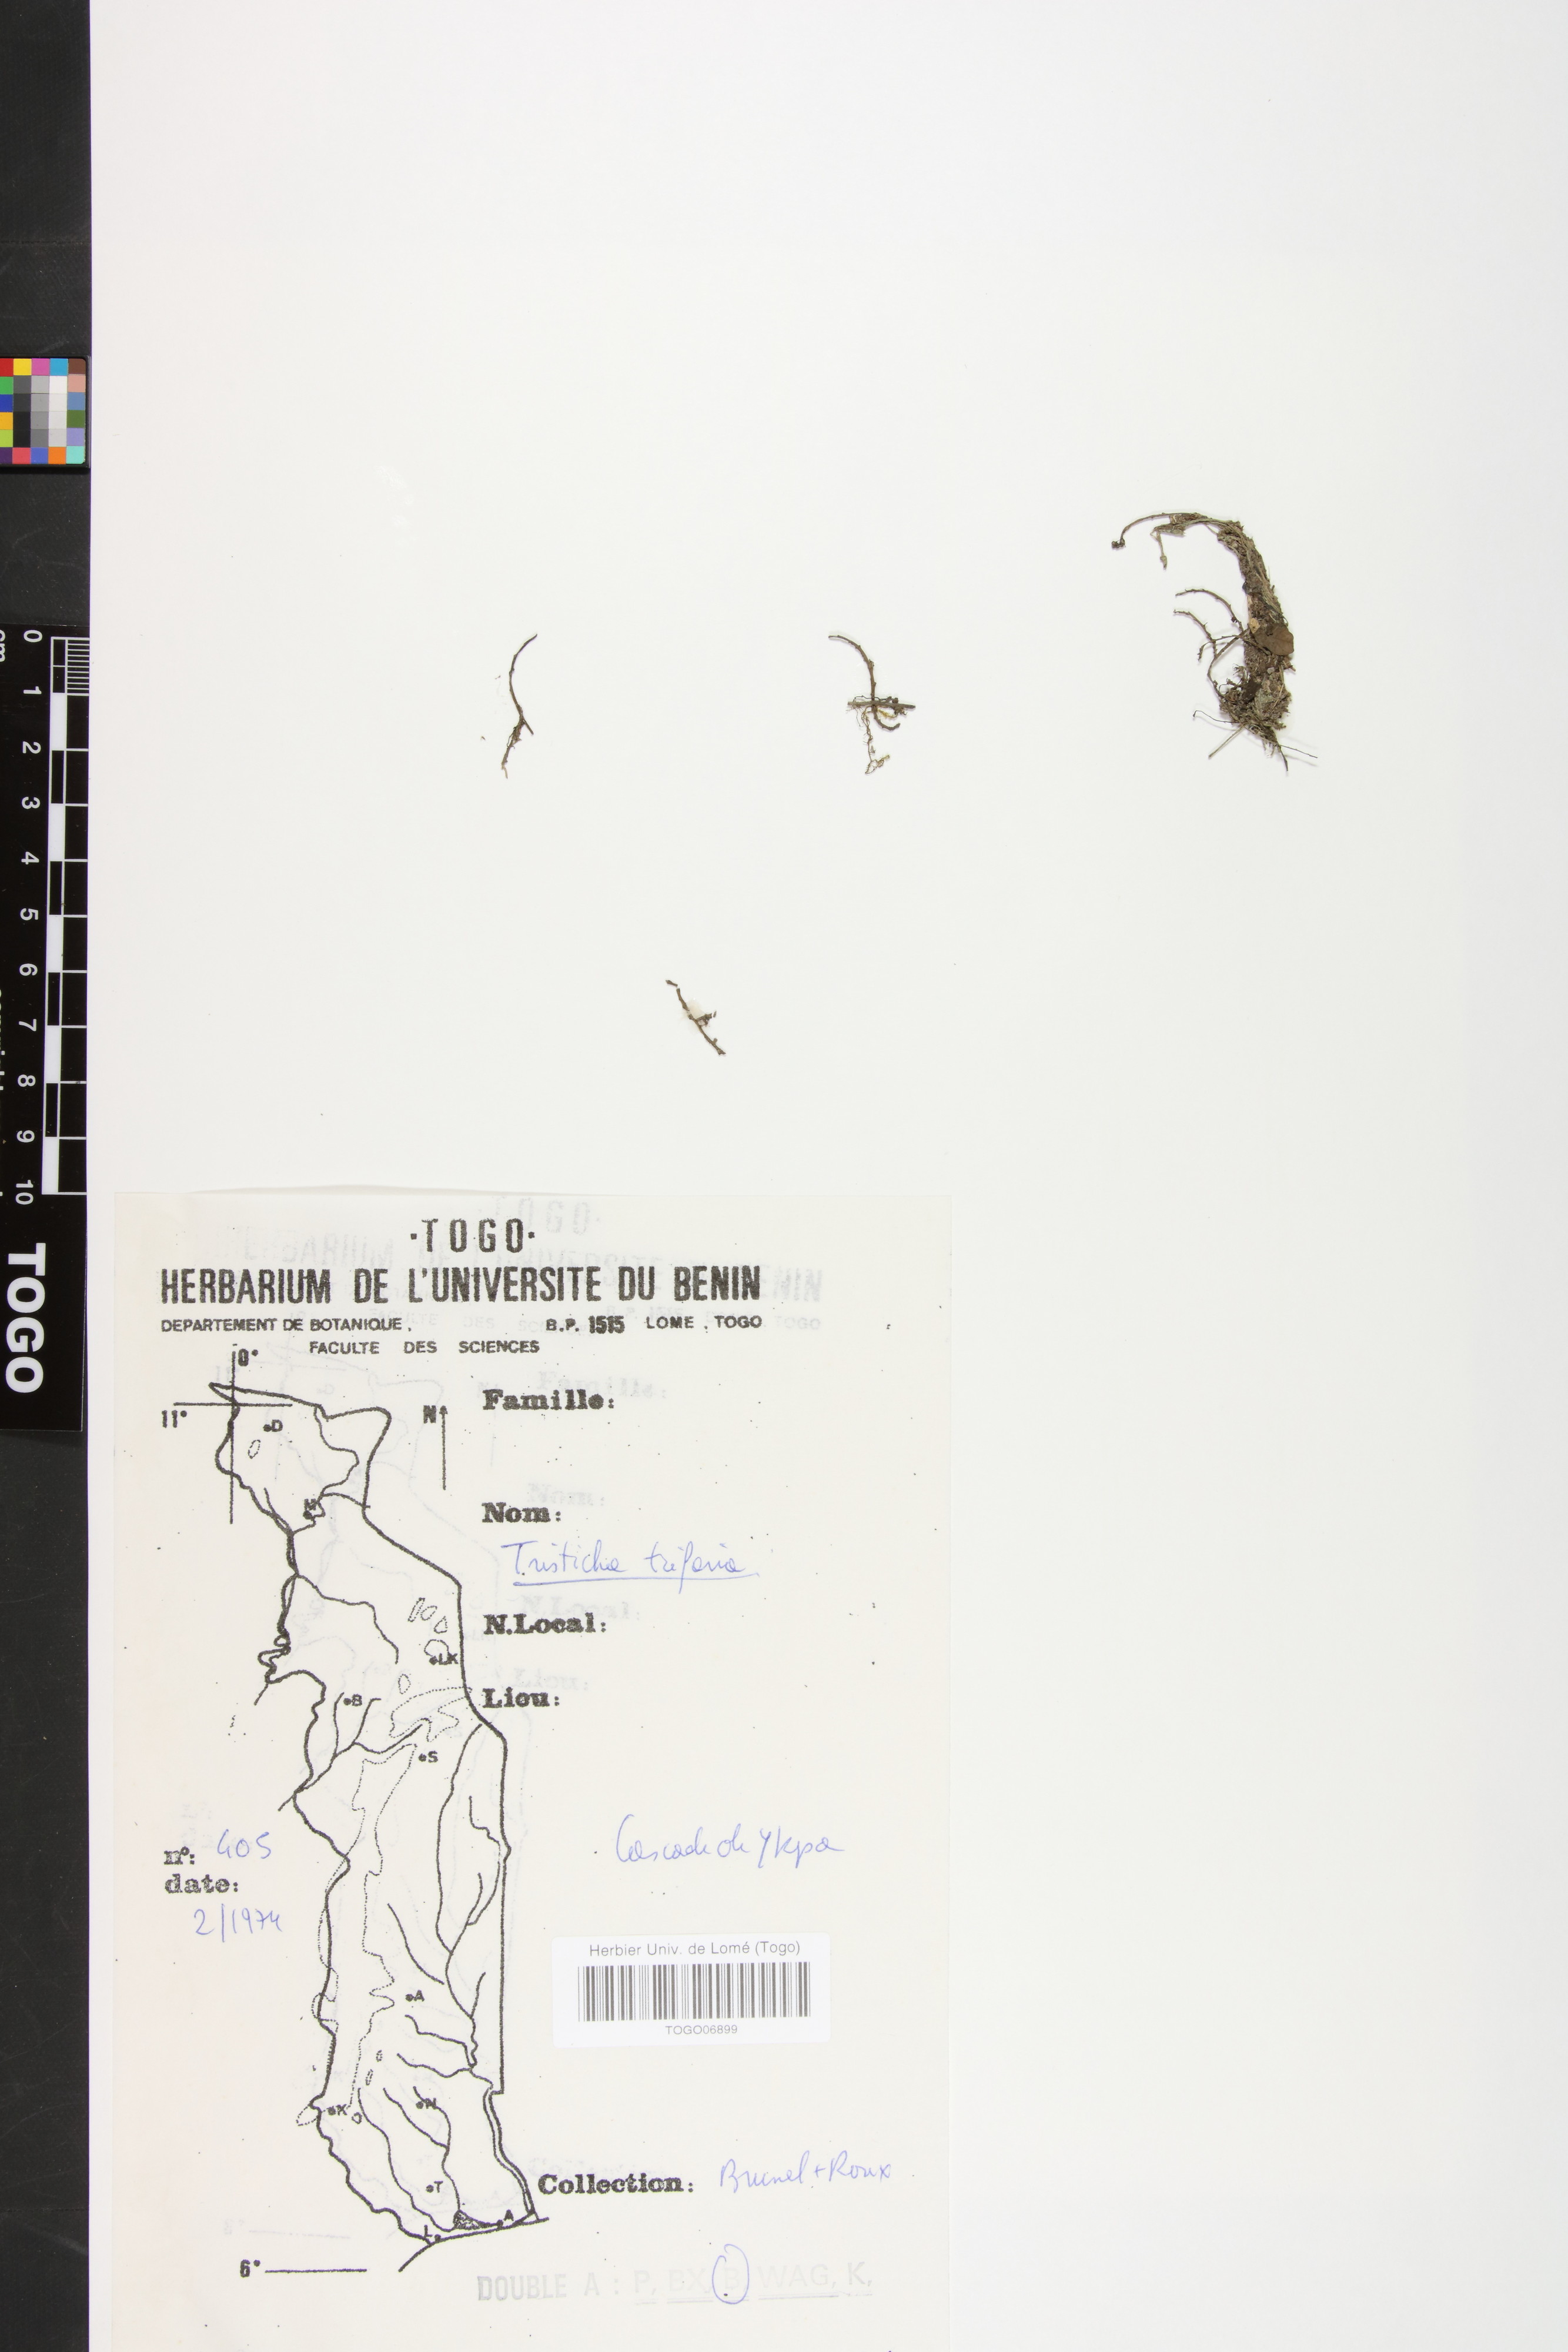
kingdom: Plantae
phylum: Tracheophyta
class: Magnoliopsida
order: Malpighiales
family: Podostemaceae
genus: Tristicha
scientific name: Tristicha trifaria
